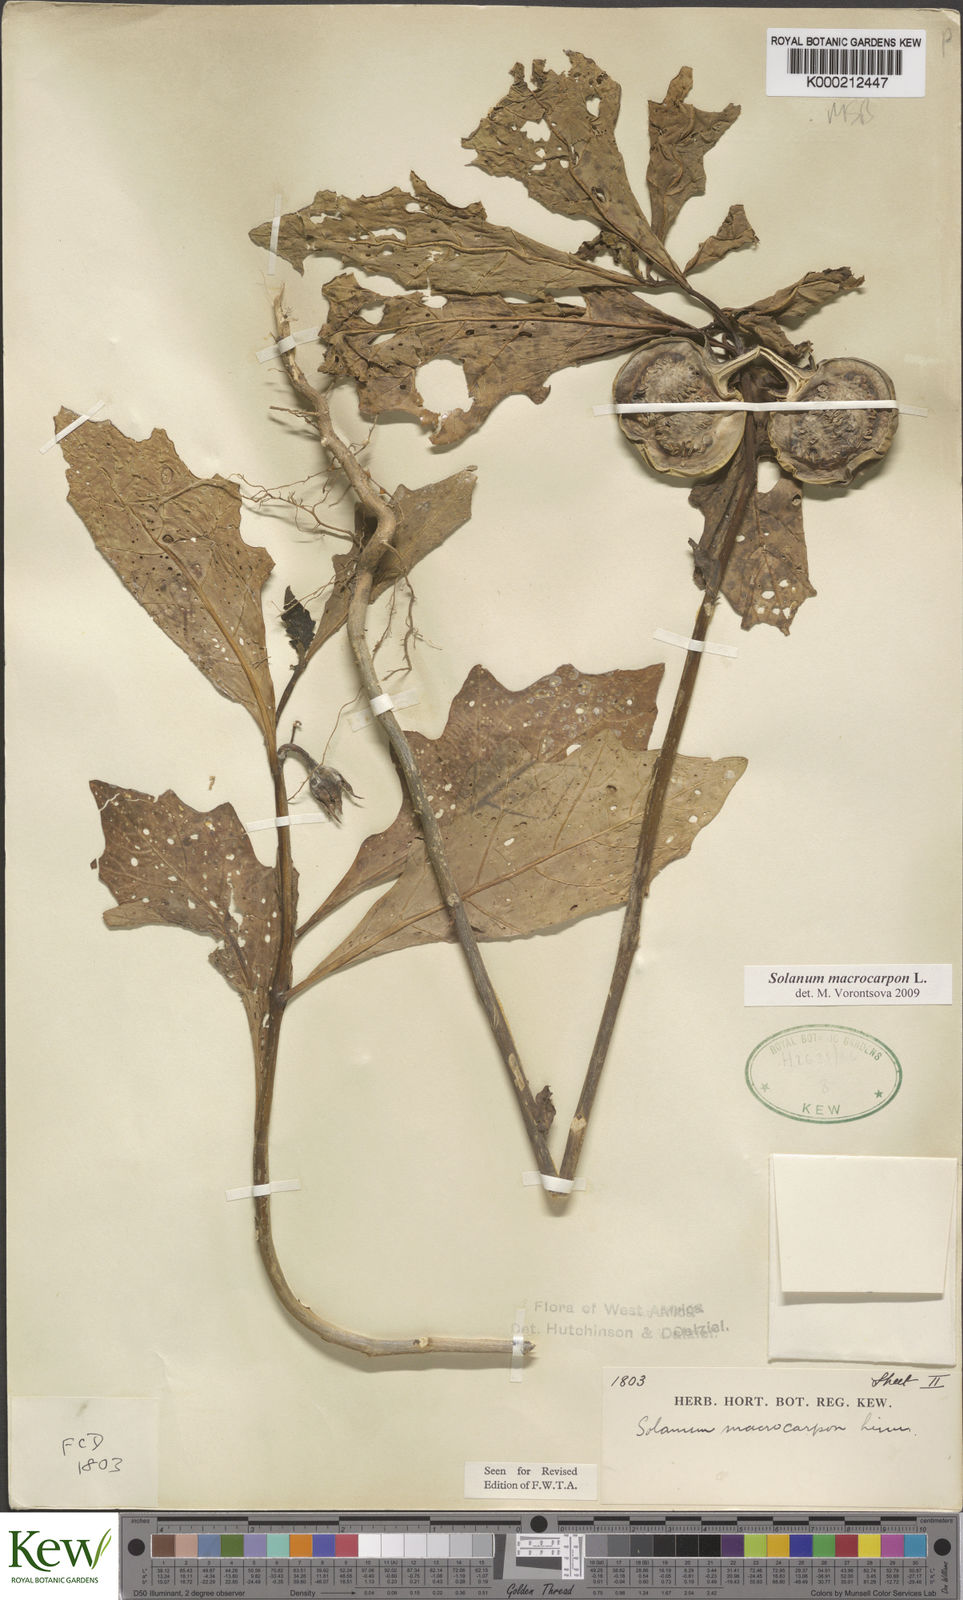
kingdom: Plantae
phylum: Tracheophyta
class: Magnoliopsida
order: Solanales
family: Solanaceae
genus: Solanum
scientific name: Solanum macrocarpon
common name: African eggplant
